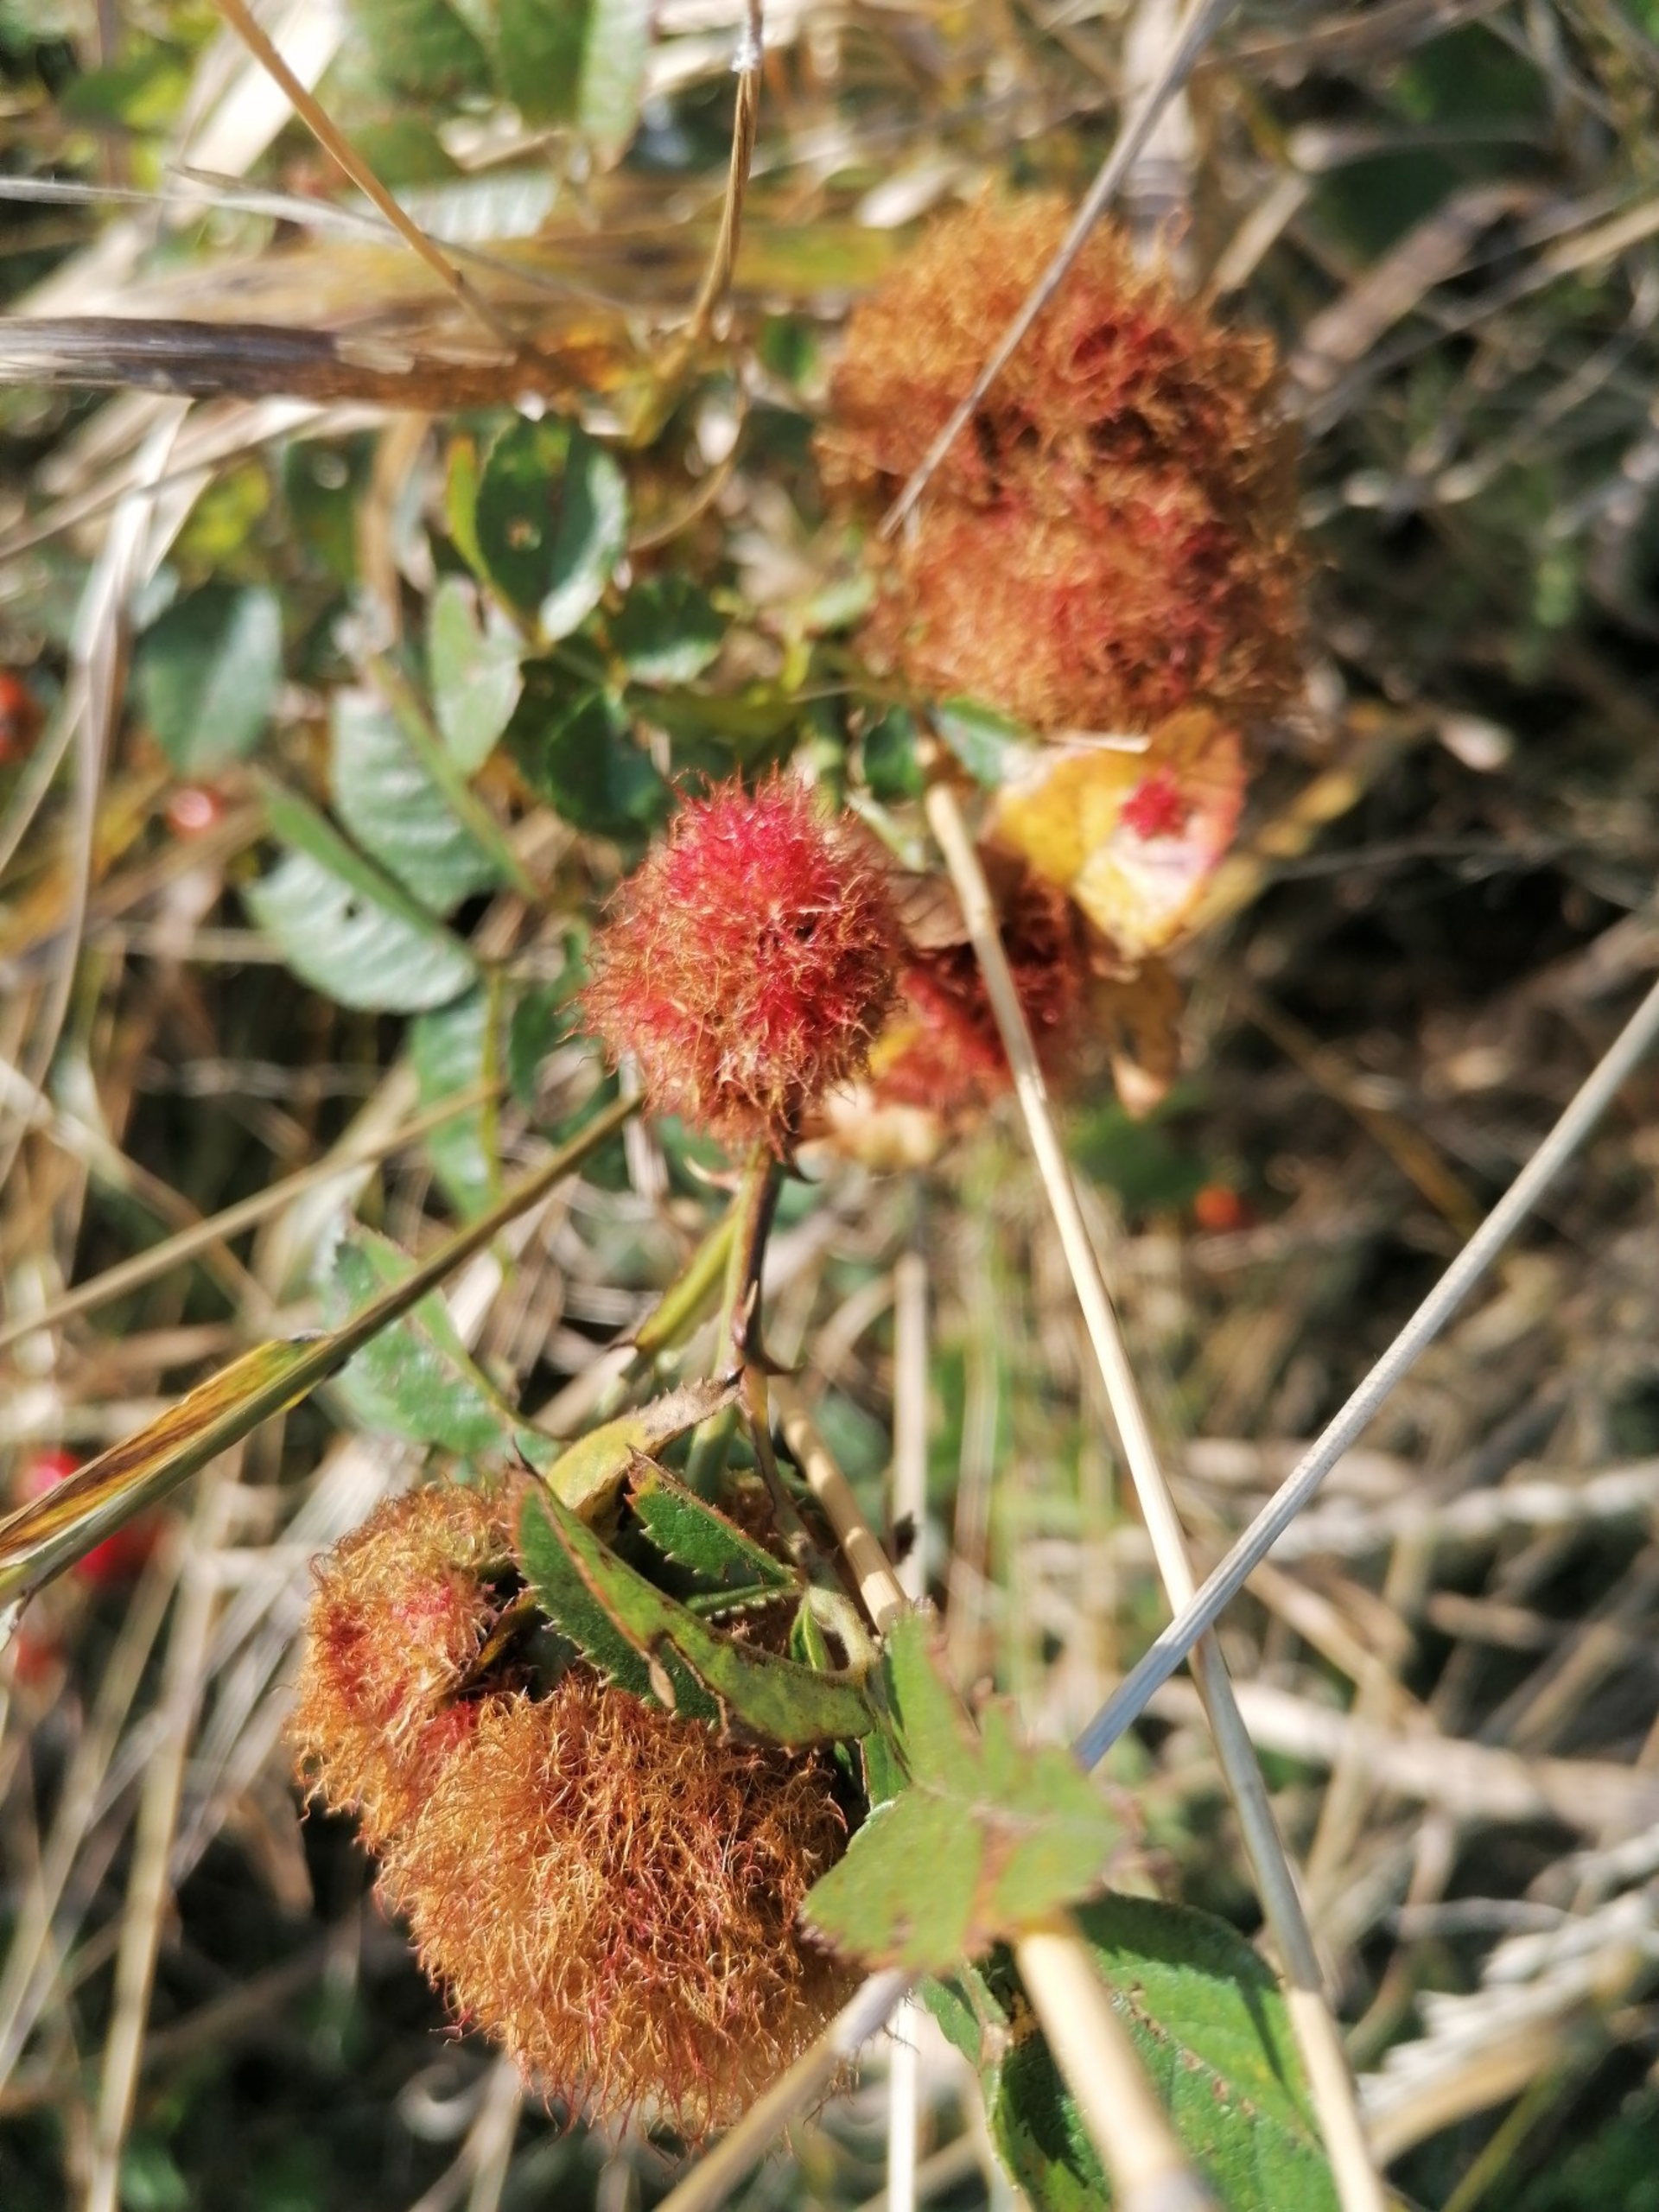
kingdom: Animalia
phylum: Arthropoda
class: Insecta
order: Hymenoptera
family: Cynipidae
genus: Diplolepis
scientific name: Diplolepis rosae
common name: Bedeguargalhveps
